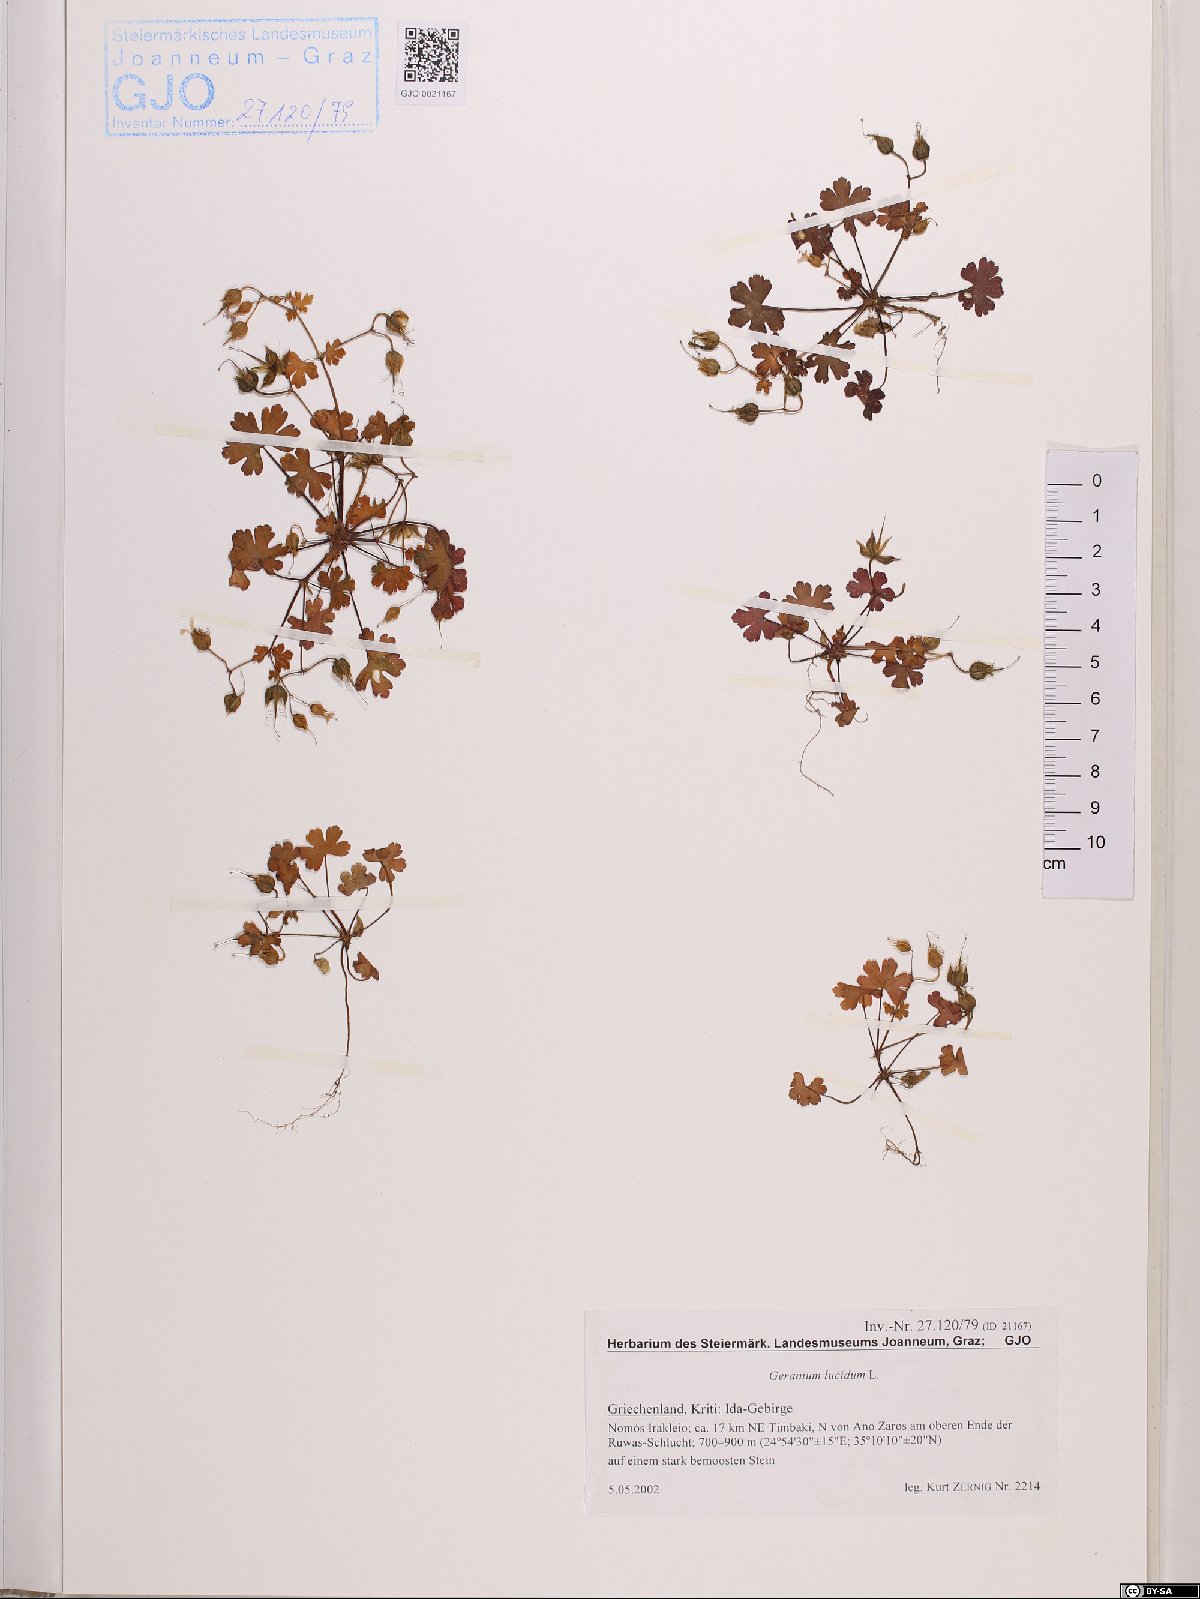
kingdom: Plantae
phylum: Tracheophyta
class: Magnoliopsida
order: Geraniales
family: Geraniaceae
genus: Geranium
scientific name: Geranium lucidum
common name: Shining crane's-bill
